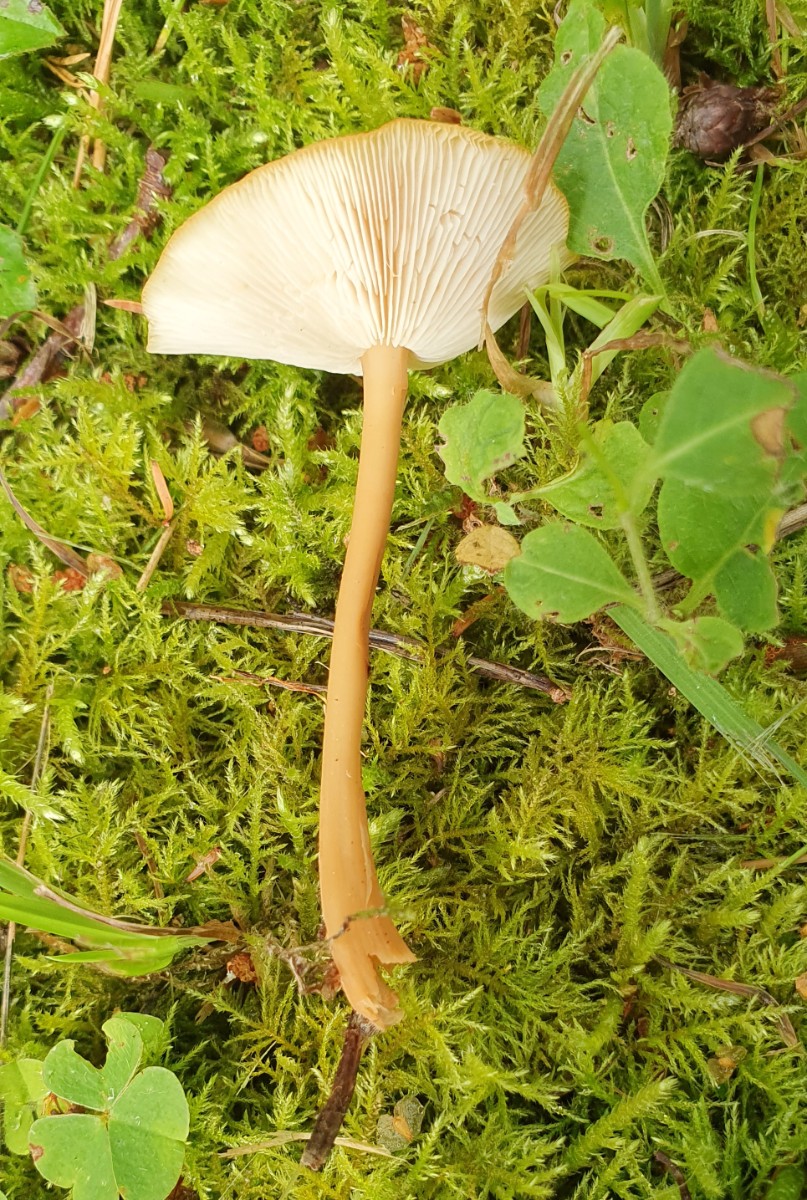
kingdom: Fungi
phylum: Basidiomycota
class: Agaricomycetes
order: Agaricales
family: Omphalotaceae
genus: Gymnopus
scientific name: Gymnopus dryophilus
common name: løv-fladhat
